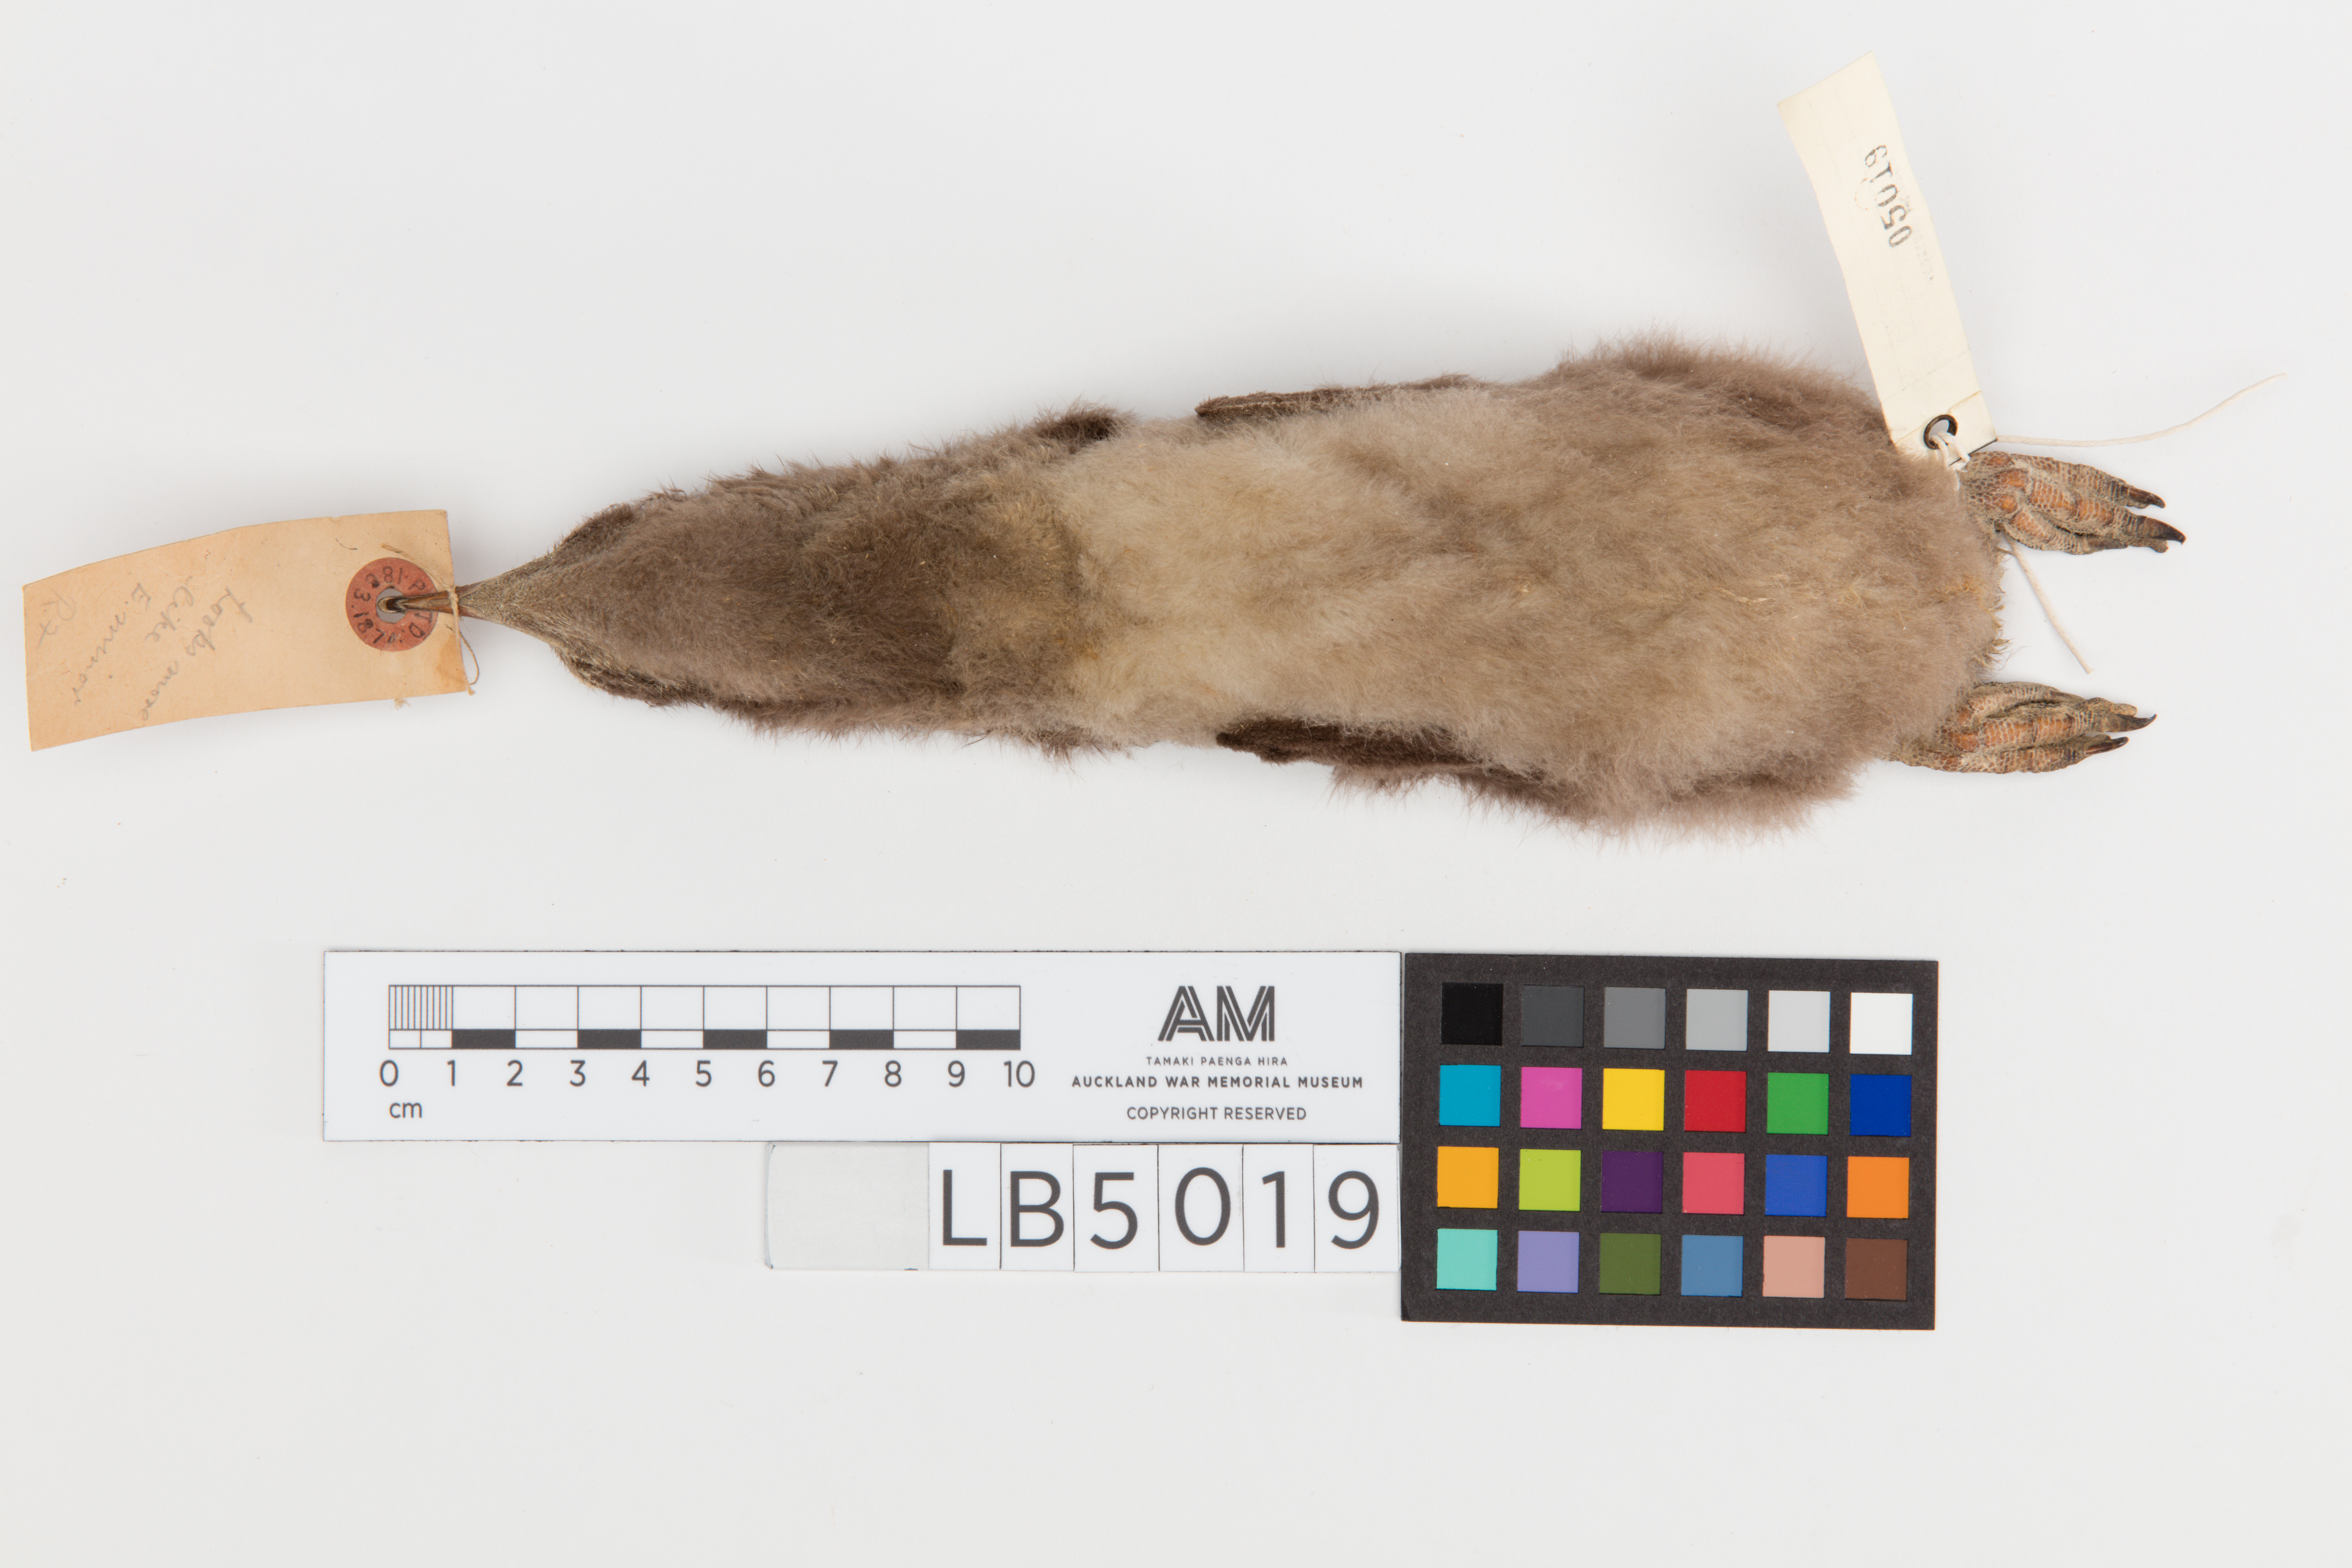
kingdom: Animalia
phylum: Chordata
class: Aves
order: Sphenisciformes
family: Spheniscidae
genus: Eudyptula
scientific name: Eudyptula minor
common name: Little penguin
